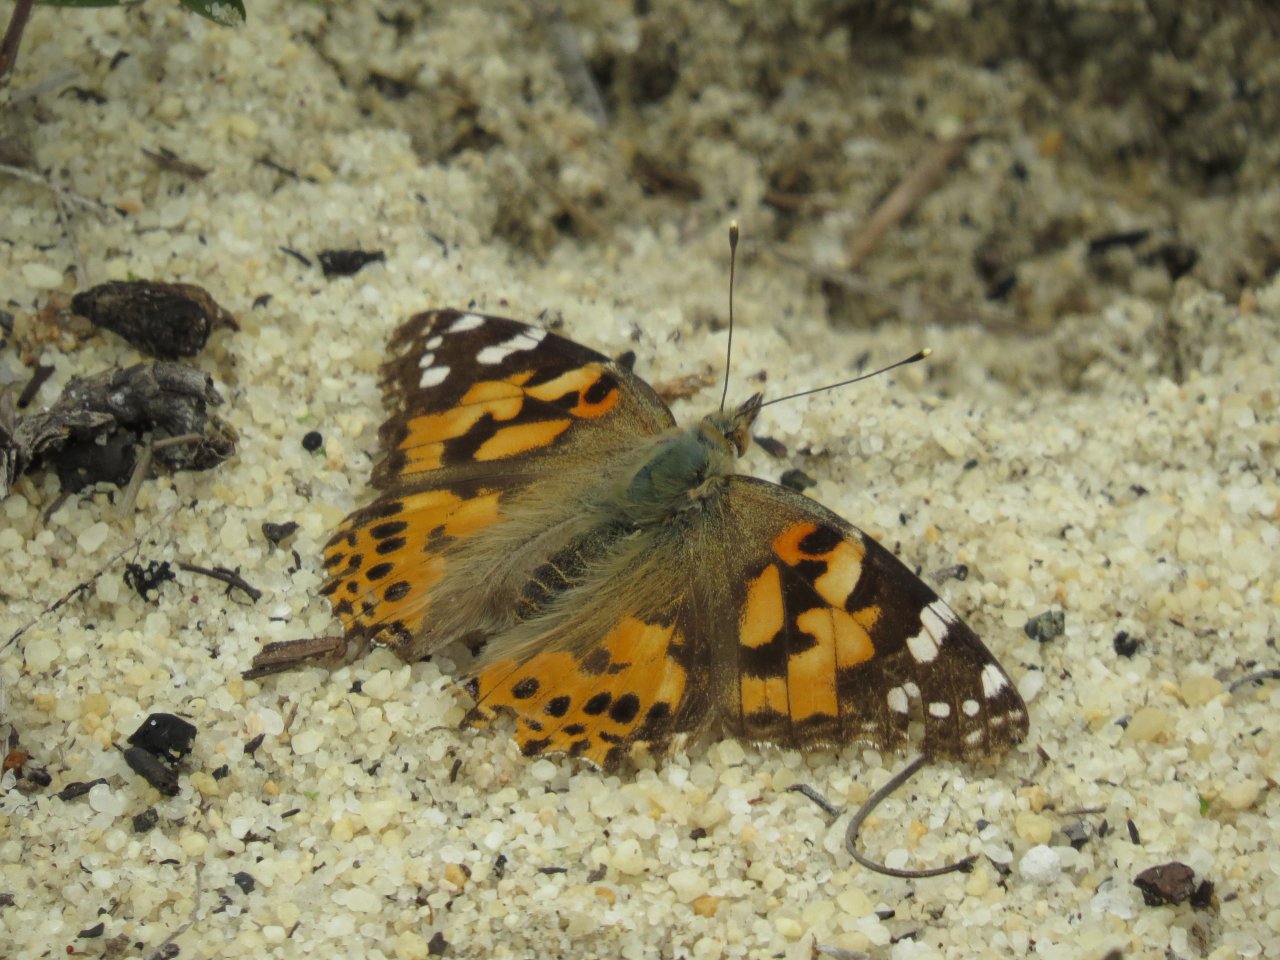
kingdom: Animalia
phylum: Arthropoda
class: Insecta
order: Lepidoptera
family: Nymphalidae
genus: Vanessa
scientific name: Vanessa cardui
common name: Painted Lady
